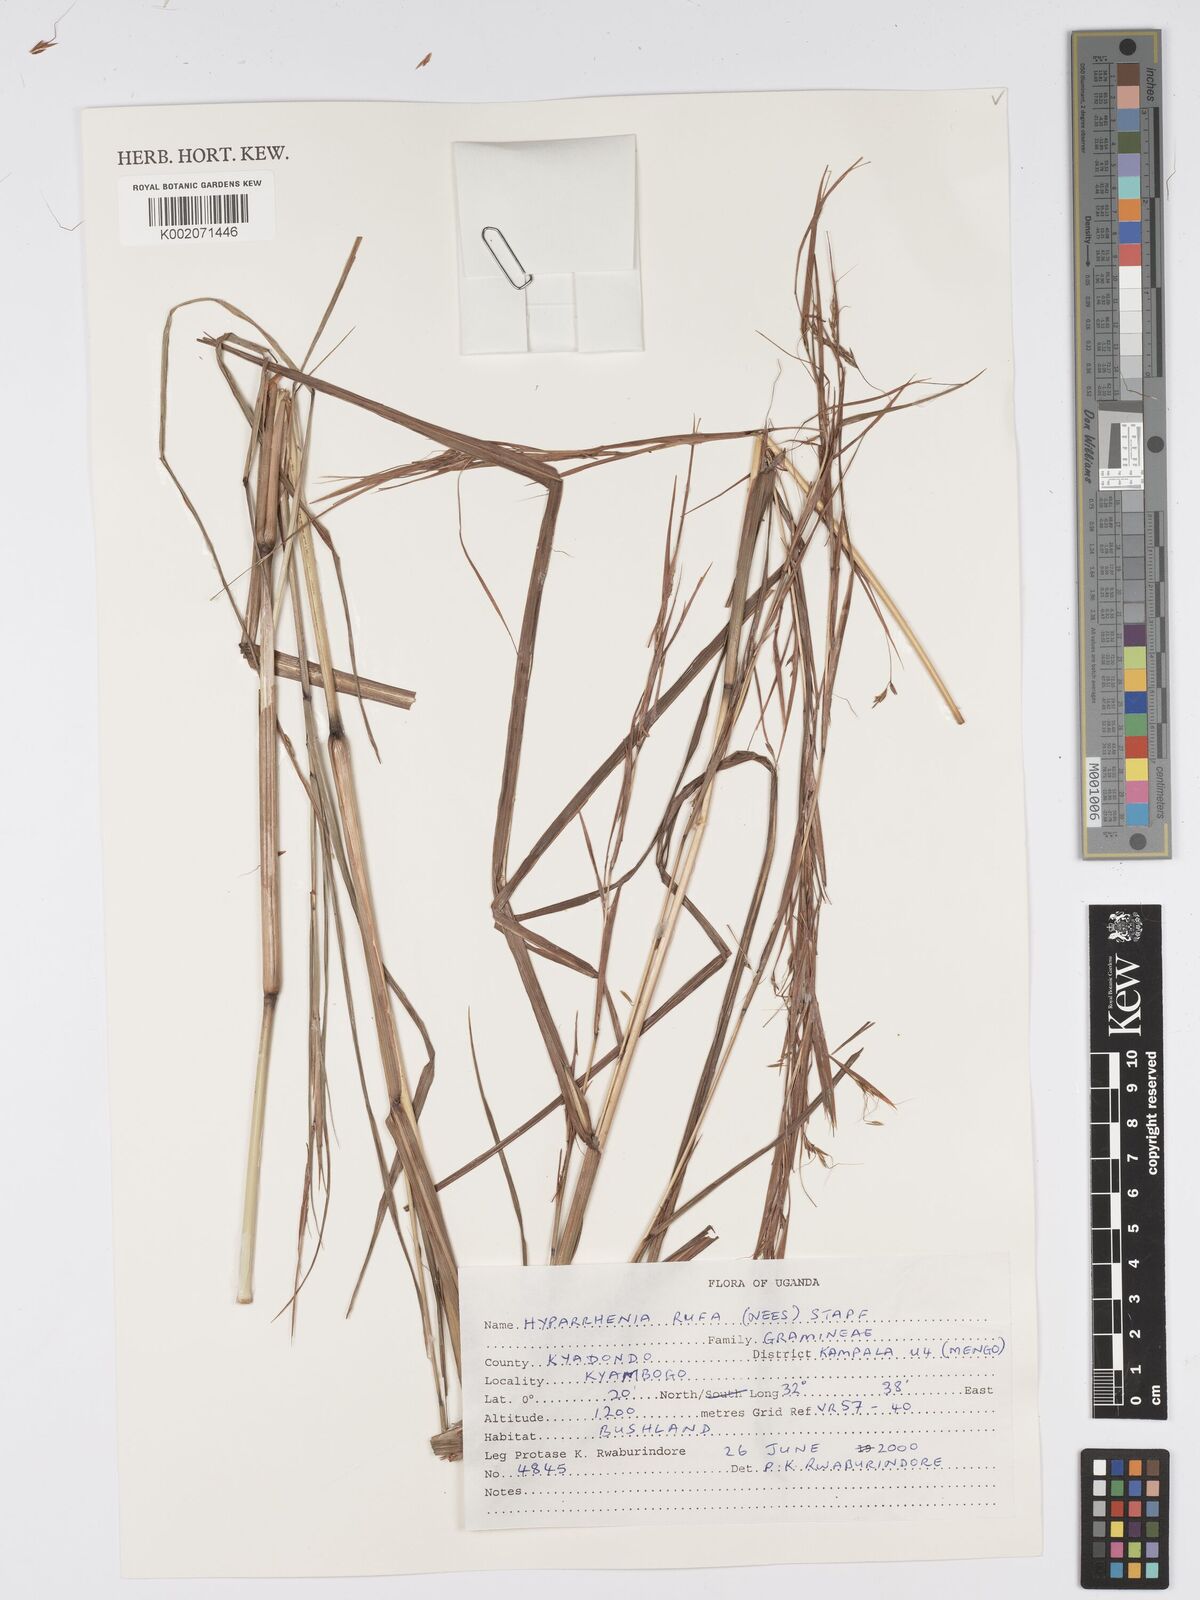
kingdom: Plantae
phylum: Tracheophyta
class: Liliopsida
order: Poales
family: Poaceae
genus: Hyparrhenia
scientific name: Hyparrhenia rufa
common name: Jaraguagrass
